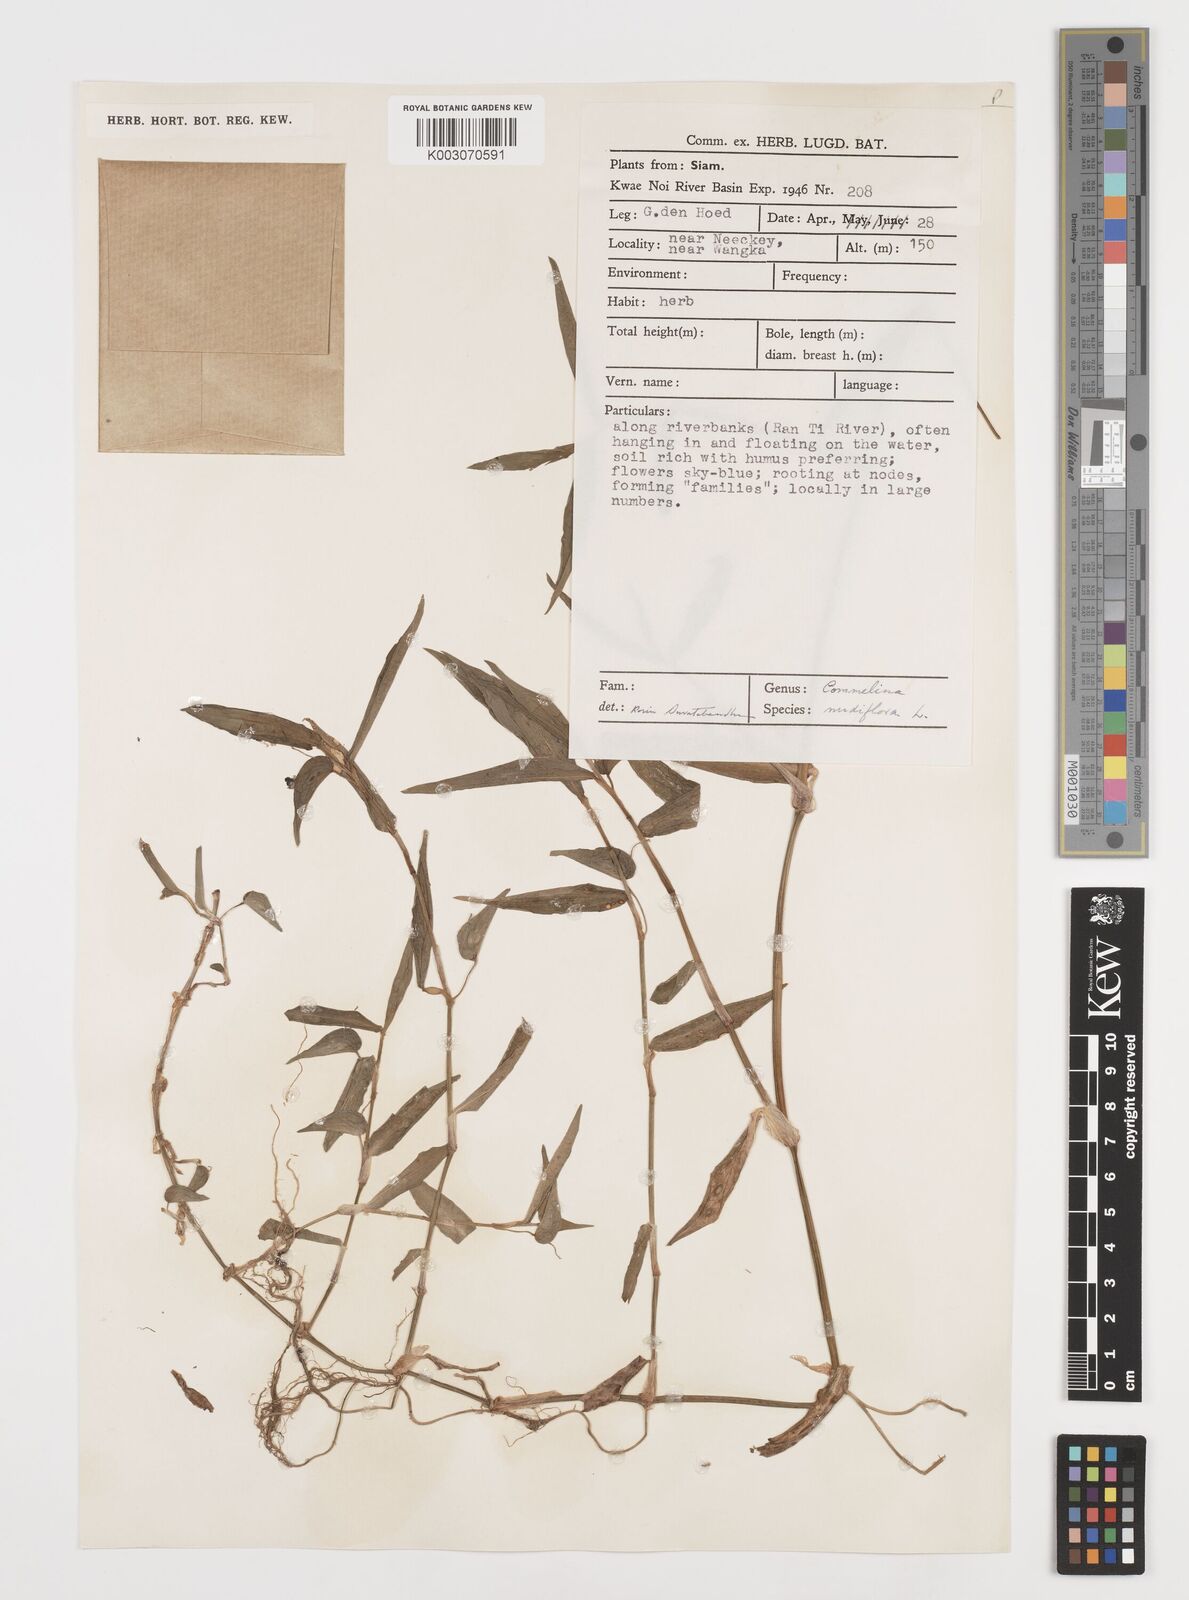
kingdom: Plantae
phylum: Tracheophyta
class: Liliopsida
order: Commelinales
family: Commelinaceae
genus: Commelina
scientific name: Commelina clavata
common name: Willow leaved dayflower
